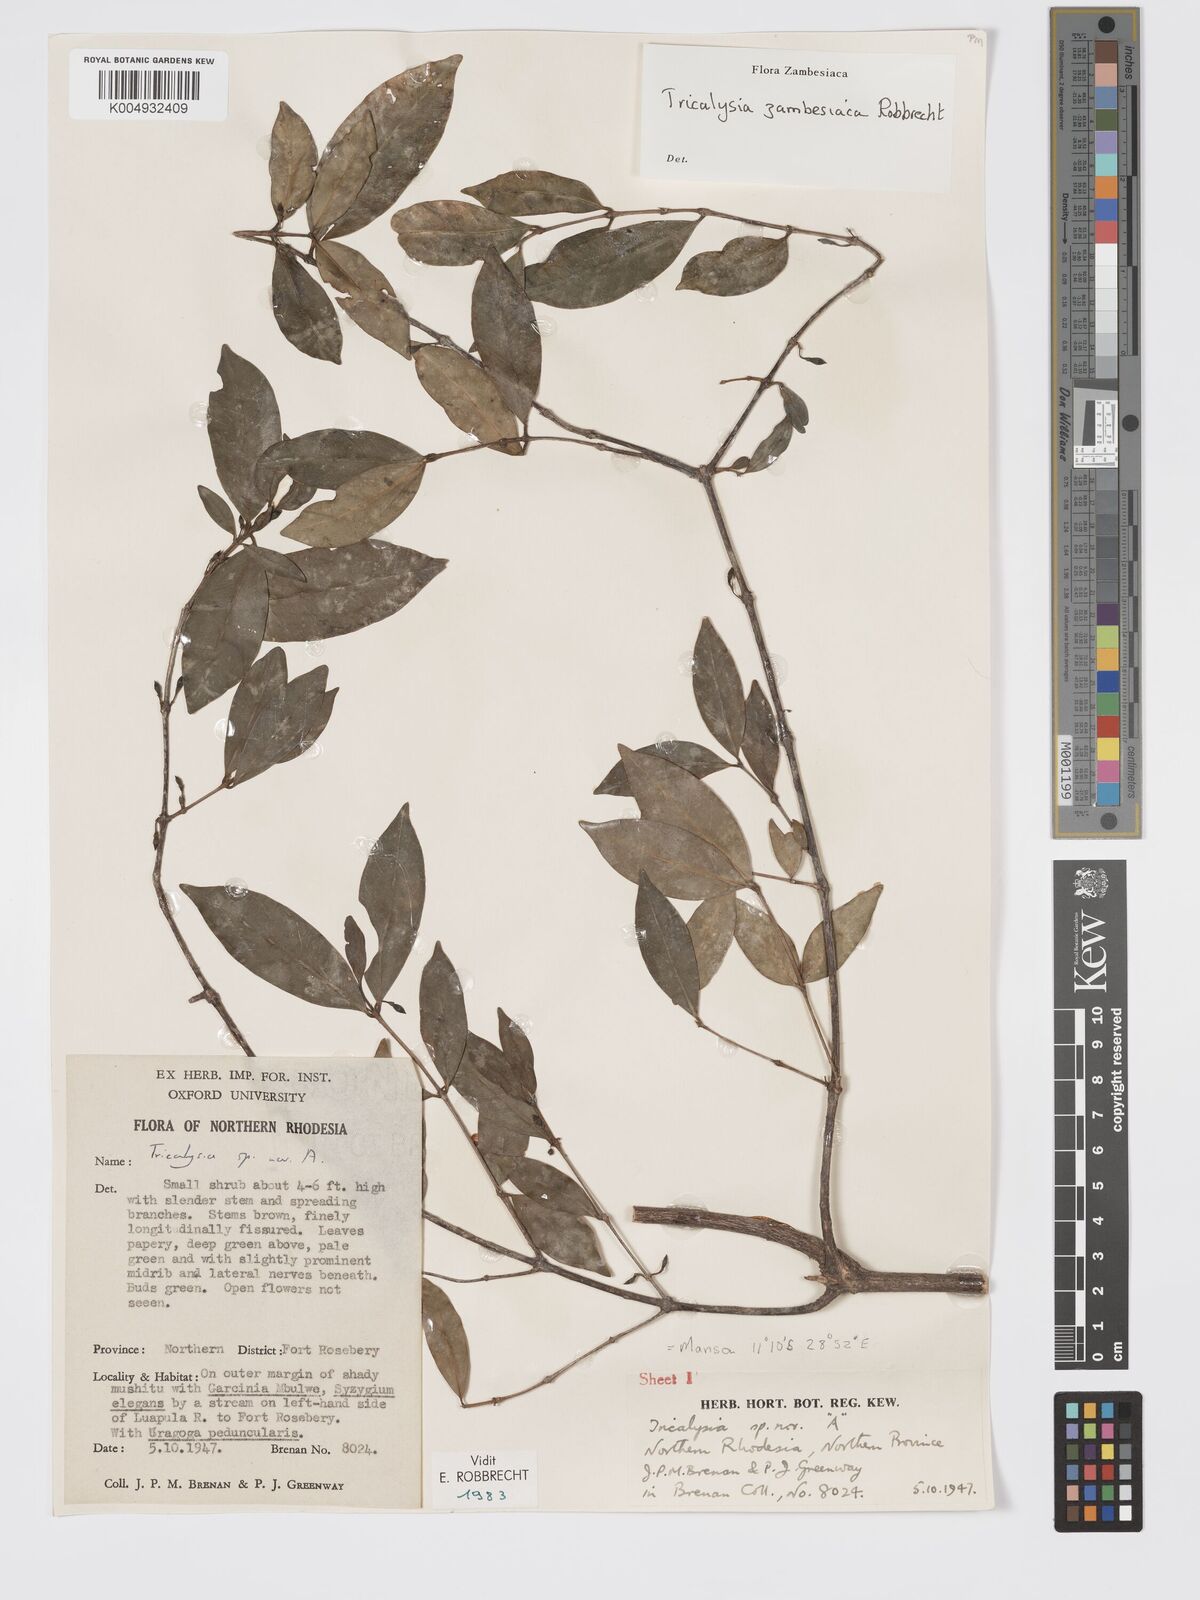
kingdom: Plantae
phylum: Tracheophyta
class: Magnoliopsida
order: Gentianales
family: Rubiaceae
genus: Tricalysia
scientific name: Tricalysia
